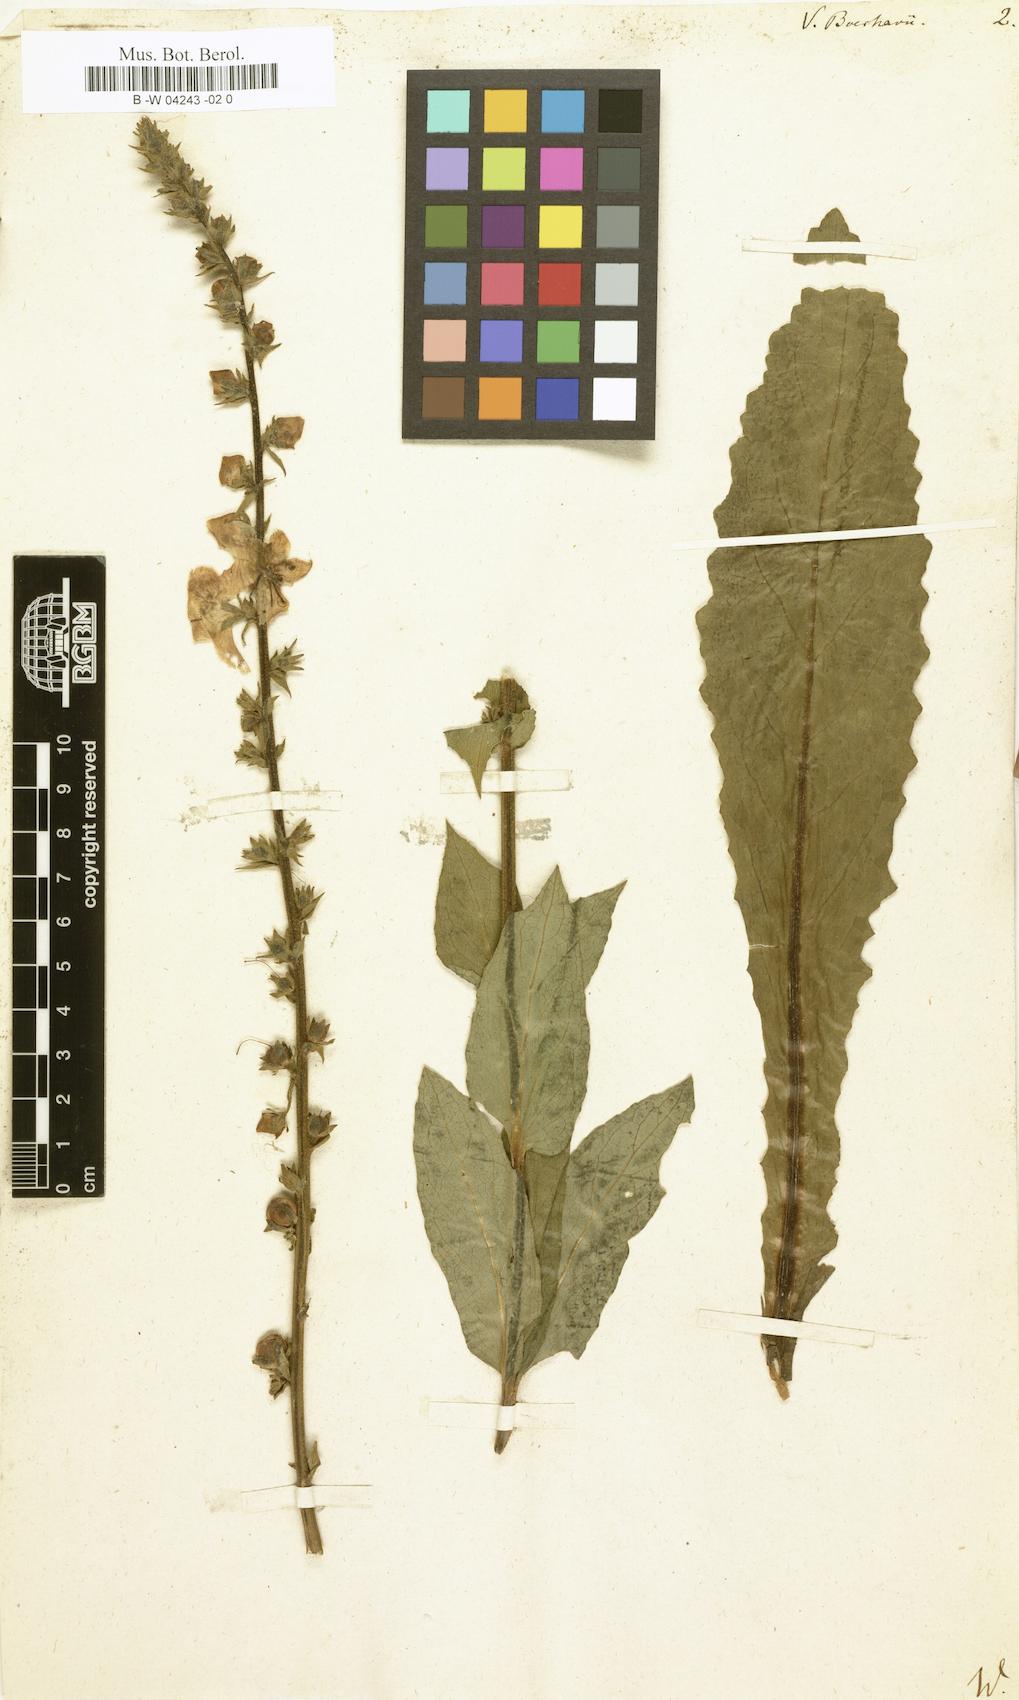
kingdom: Plantae
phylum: Tracheophyta
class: Magnoliopsida
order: Lamiales
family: Scrophulariaceae
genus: Verbascum
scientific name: Verbascum boerhavii
